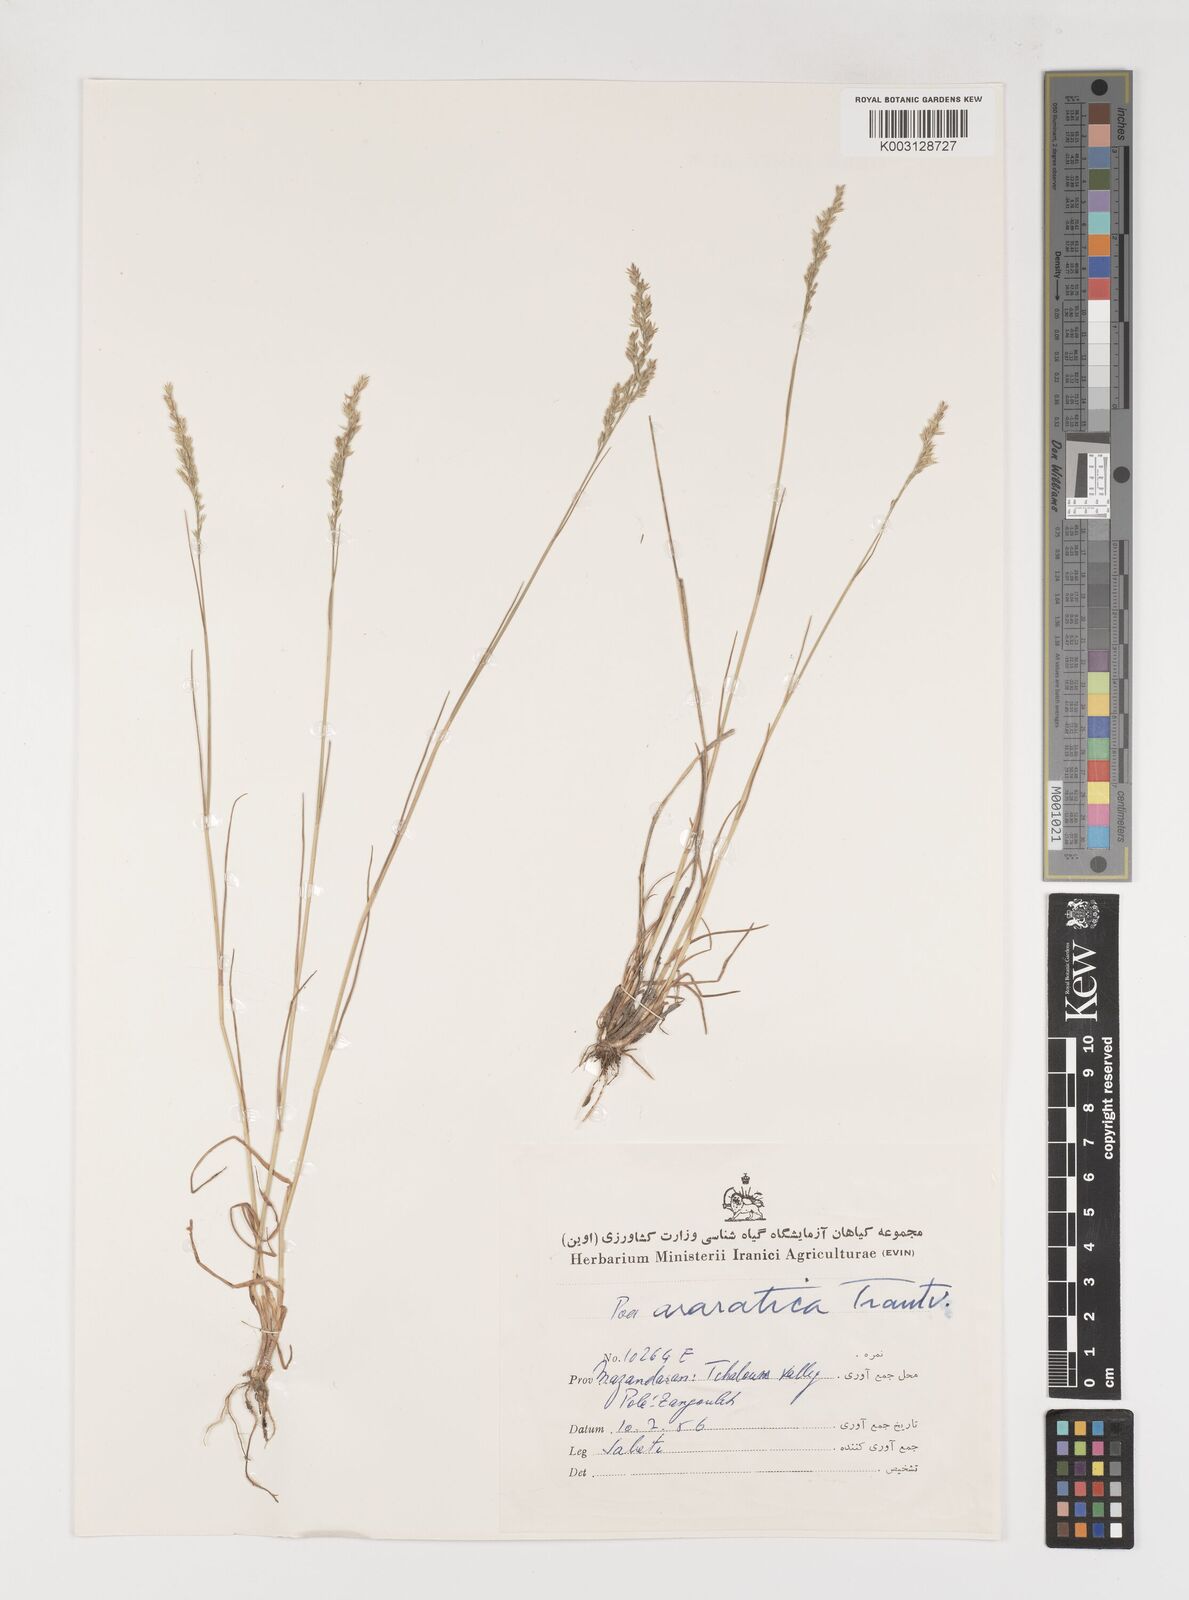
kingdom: Plantae
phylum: Tracheophyta
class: Liliopsida
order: Poales
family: Poaceae
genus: Poa
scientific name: Poa araratica
